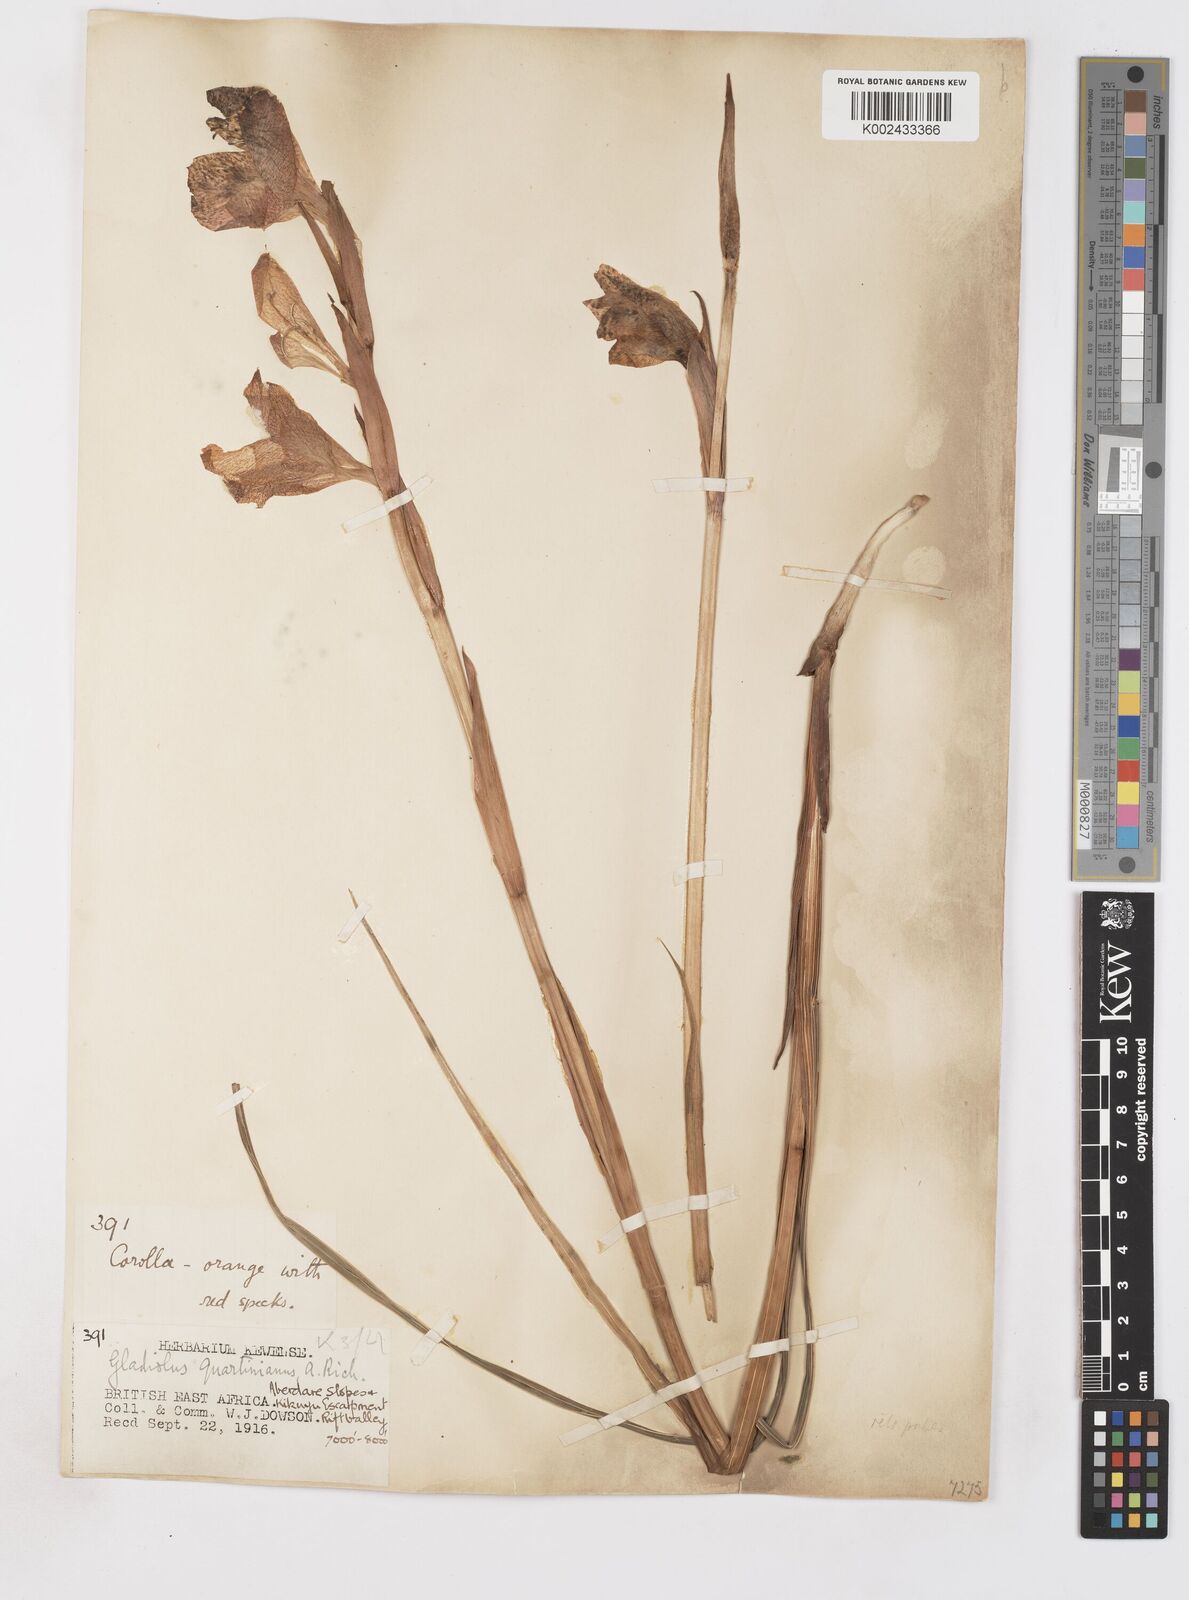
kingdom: Plantae
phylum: Tracheophyta
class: Liliopsida
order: Asparagales
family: Iridaceae
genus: Gladiolus
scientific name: Gladiolus dalenii
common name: Cornflag
